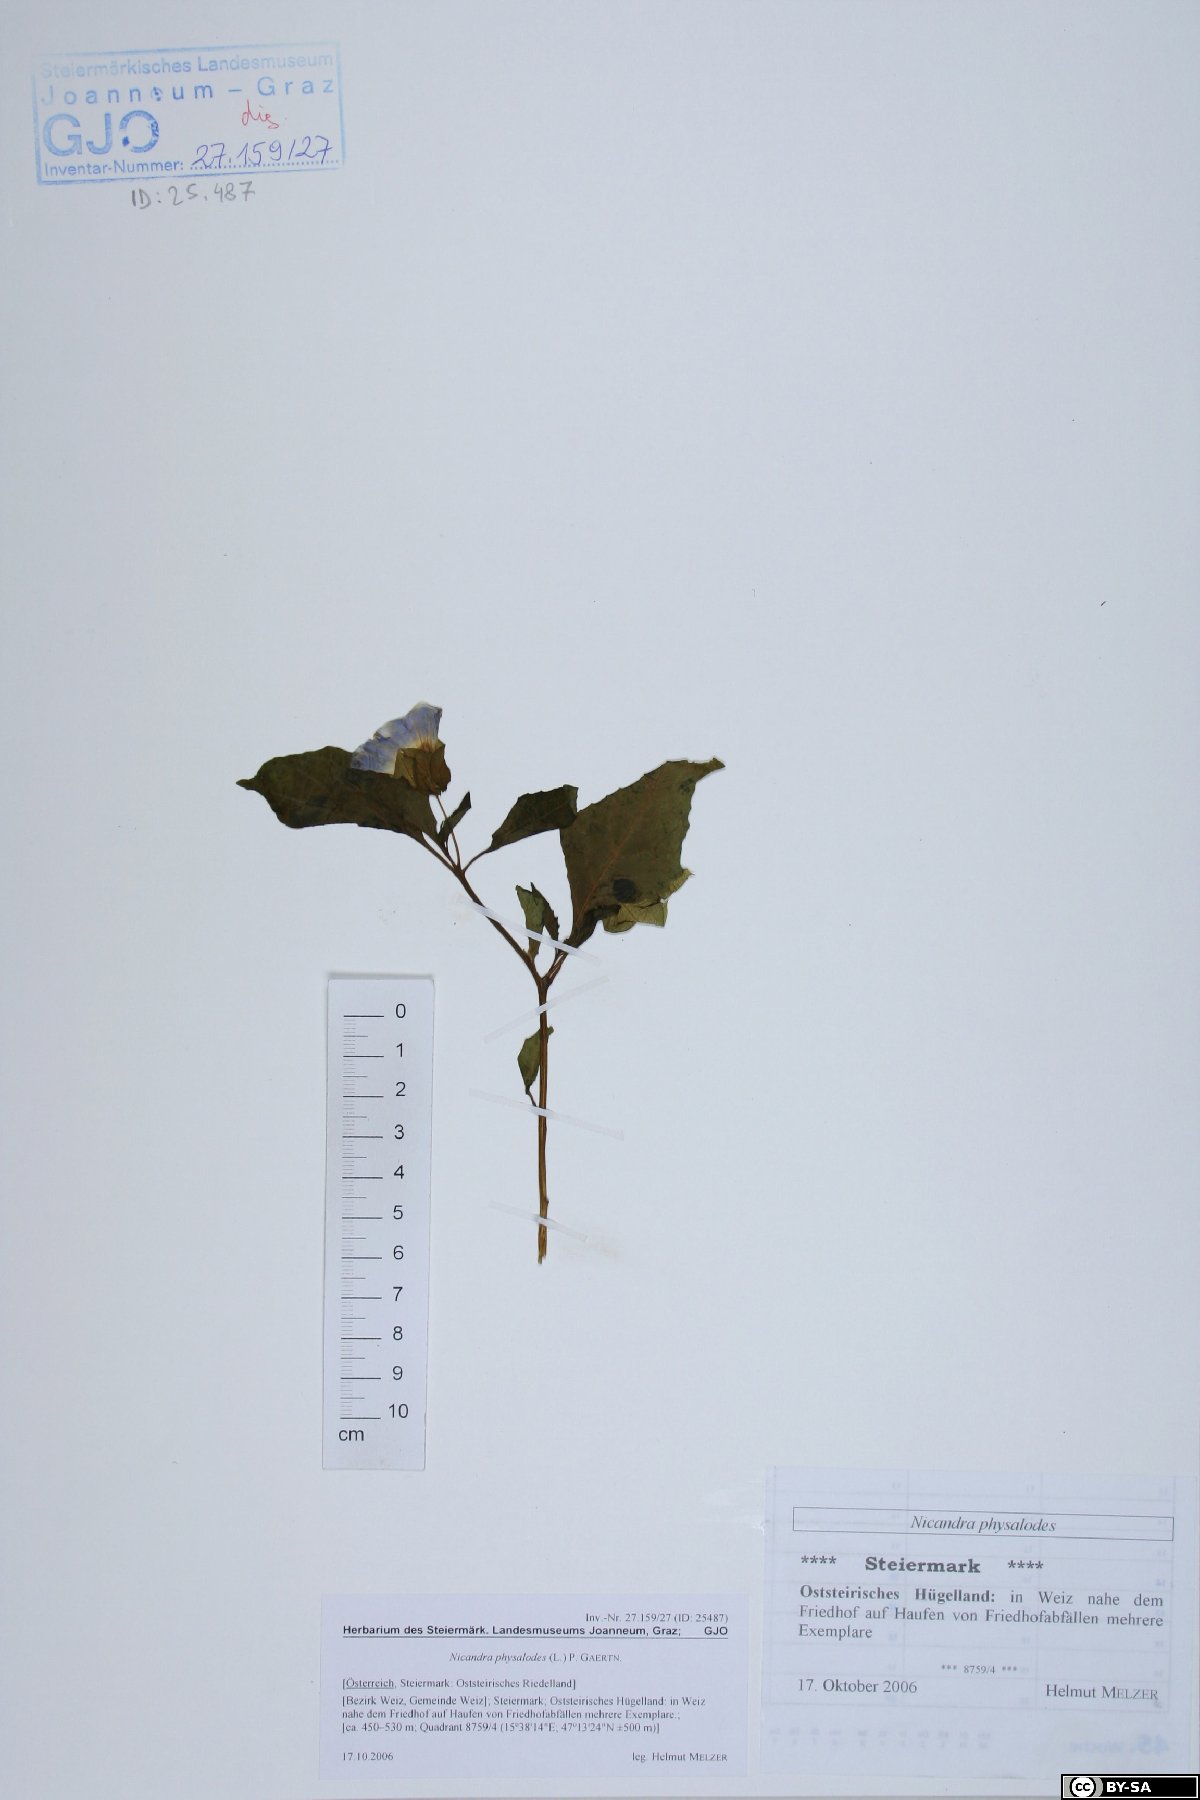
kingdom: Plantae
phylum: Tracheophyta
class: Magnoliopsida
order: Solanales
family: Solanaceae
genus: Nicandra
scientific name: Nicandra physalodes
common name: Apple-of-peru
